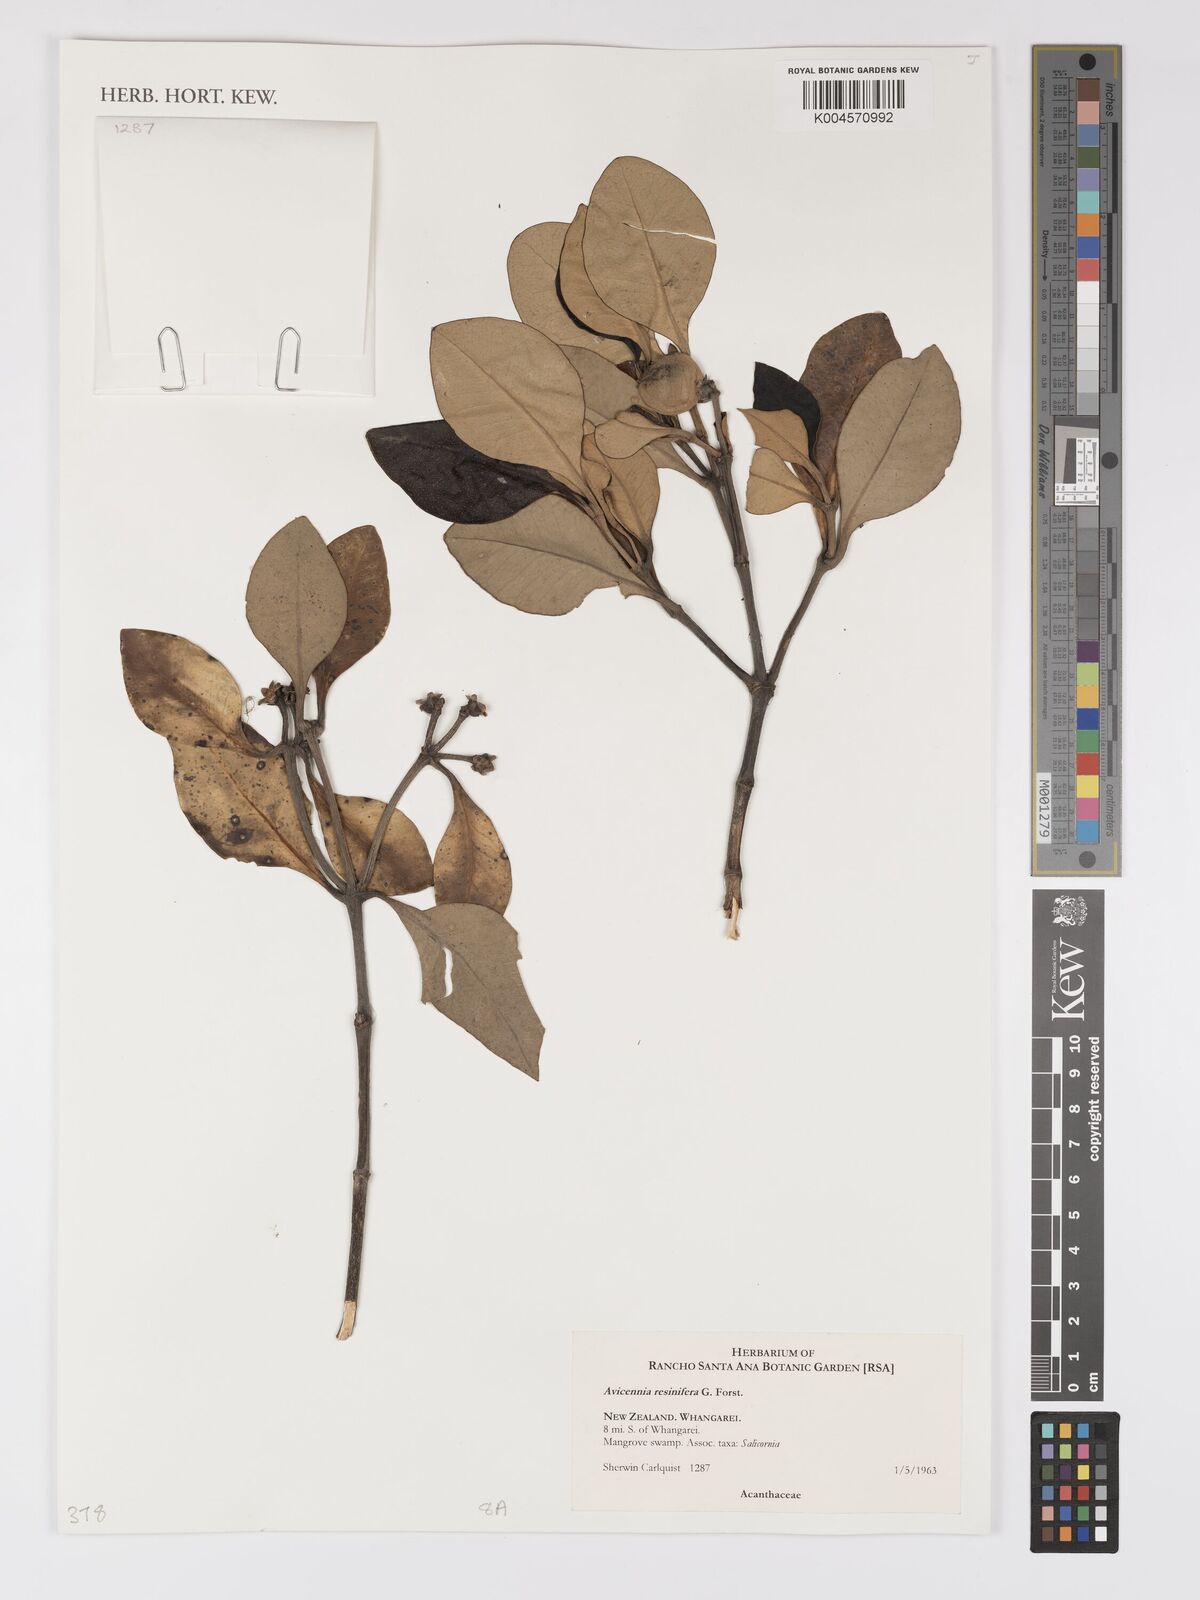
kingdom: Plantae
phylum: Tracheophyta
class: Magnoliopsida
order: Lamiales
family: Acanthaceae
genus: Avicennia
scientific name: Avicennia marina
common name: Gray mangrove
